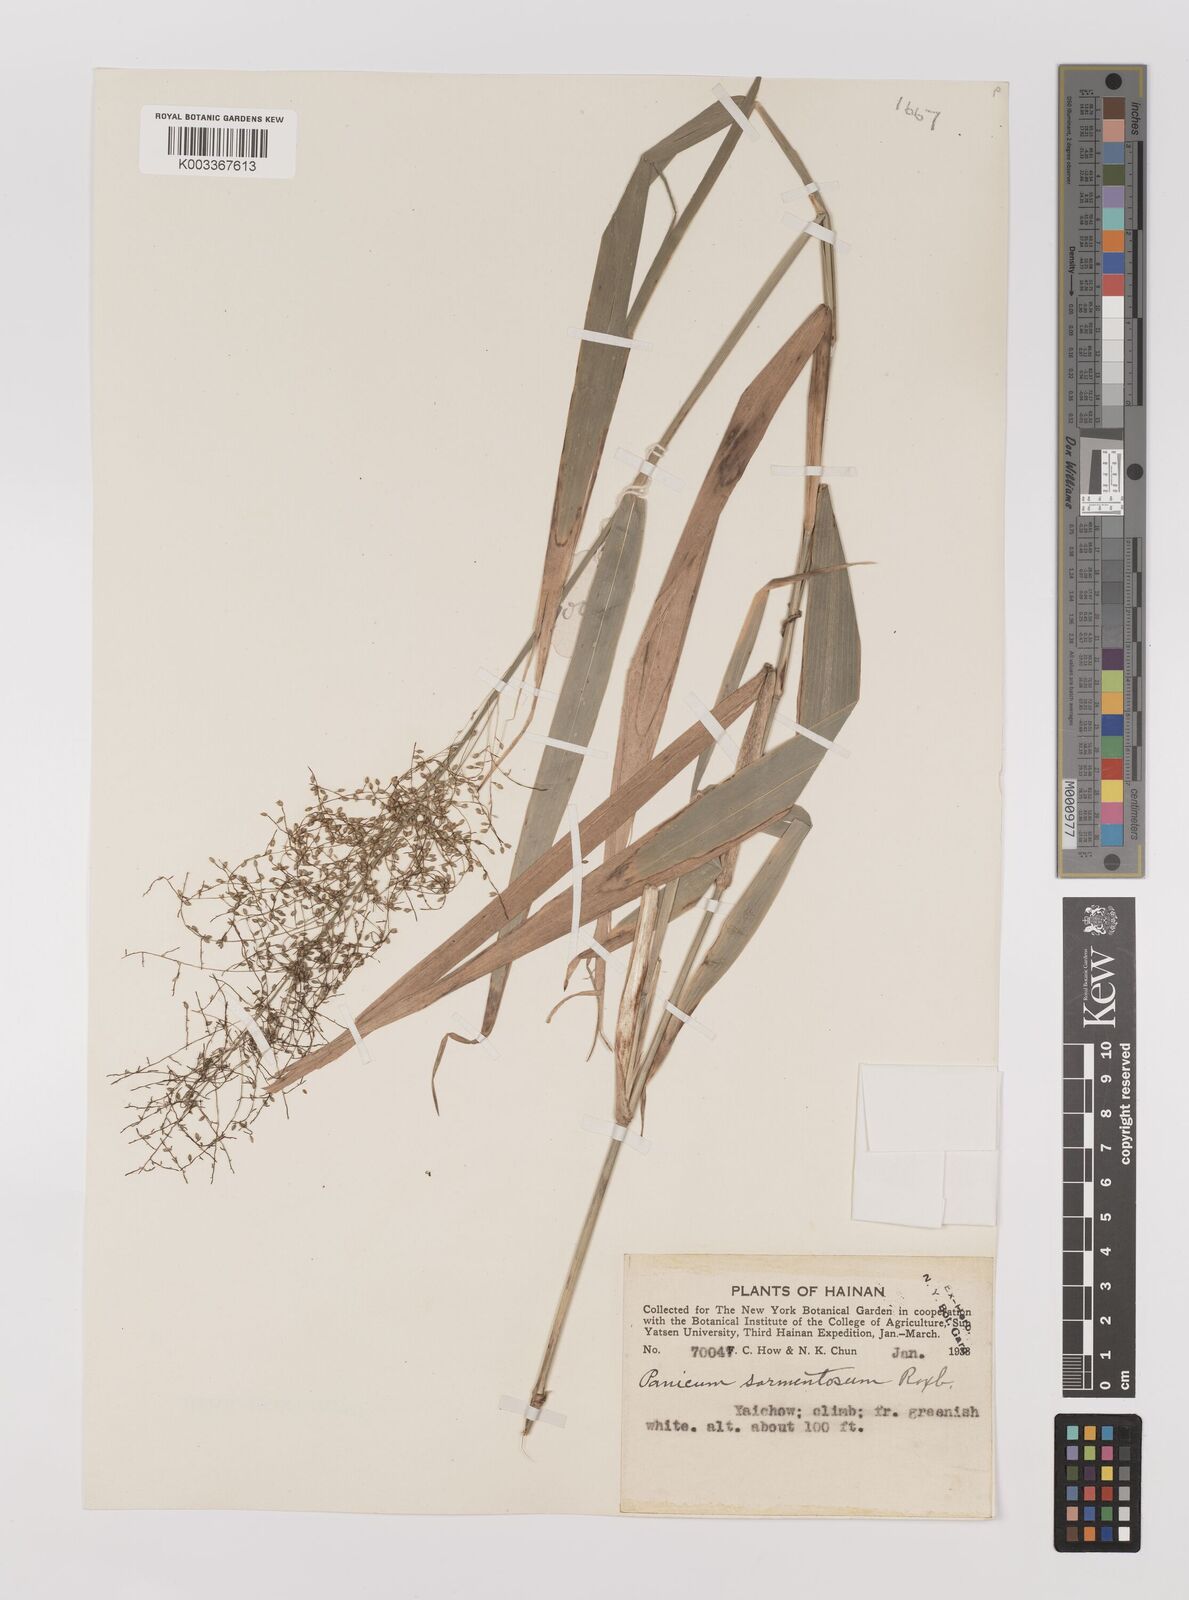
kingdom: Plantae
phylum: Tracheophyta
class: Liliopsida
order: Poales
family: Poaceae
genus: Panicum
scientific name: Panicum incomtum
